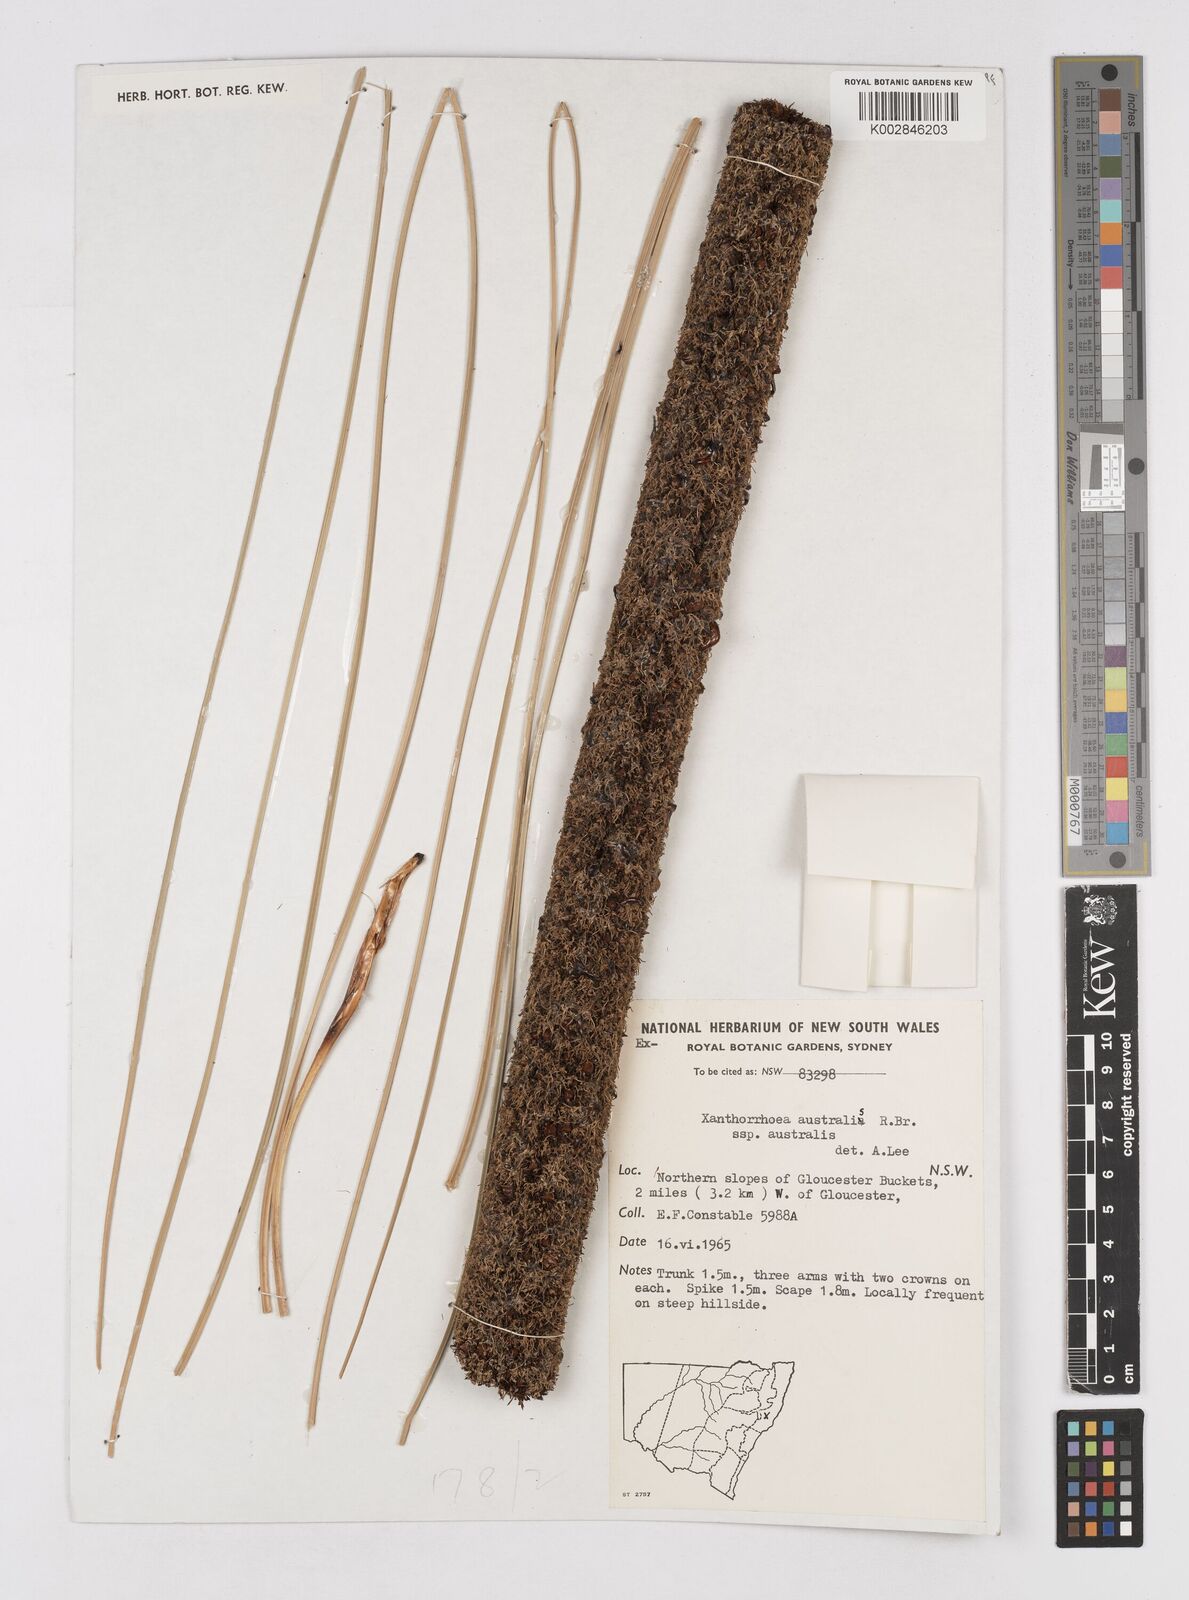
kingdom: Plantae
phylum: Tracheophyta
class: Liliopsida
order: Asparagales
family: Asphodelaceae
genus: Xanthorrhoea
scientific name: Xanthorrhoea acaulis
